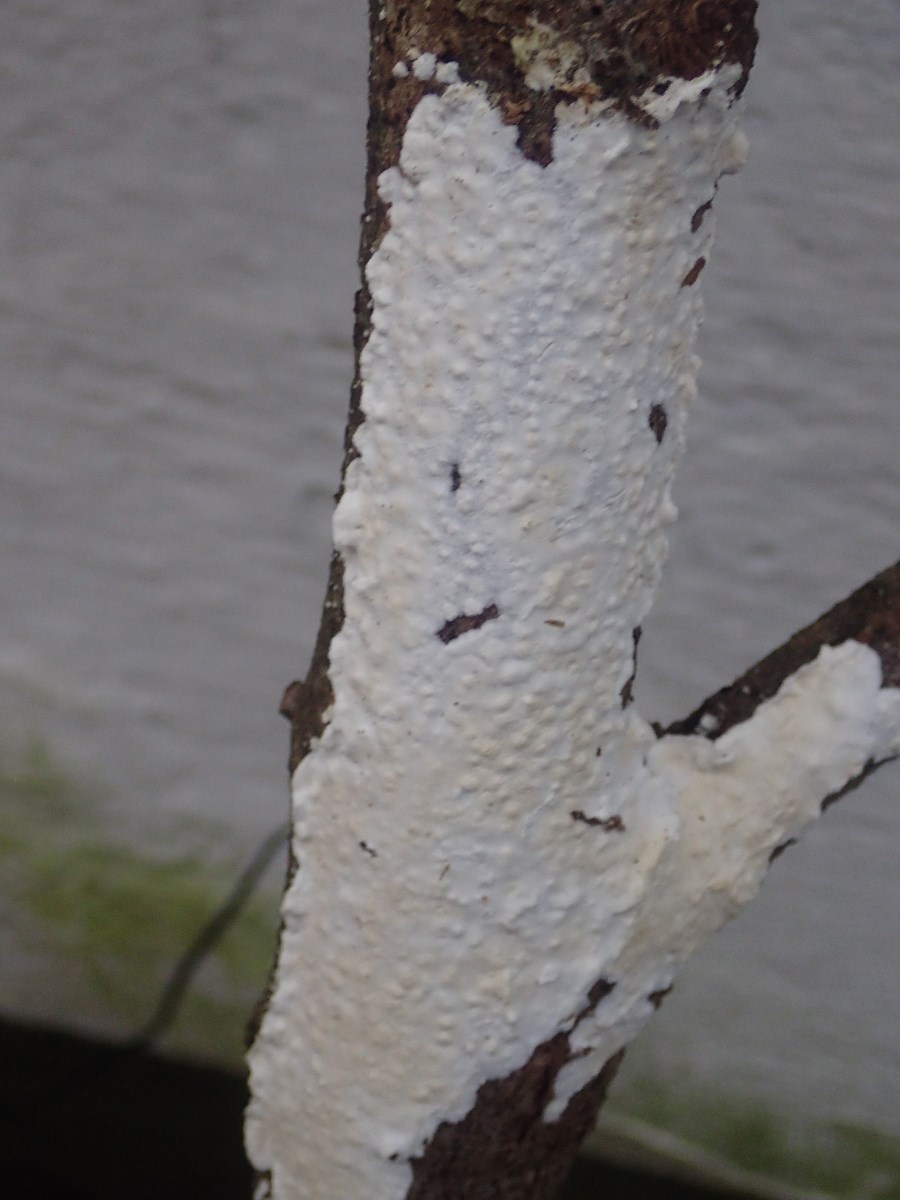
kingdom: Fungi
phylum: Basidiomycota
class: Agaricomycetes
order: Polyporales
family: Irpicaceae
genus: Byssomerulius
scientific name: Byssomerulius corium
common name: læder-åresvamp
